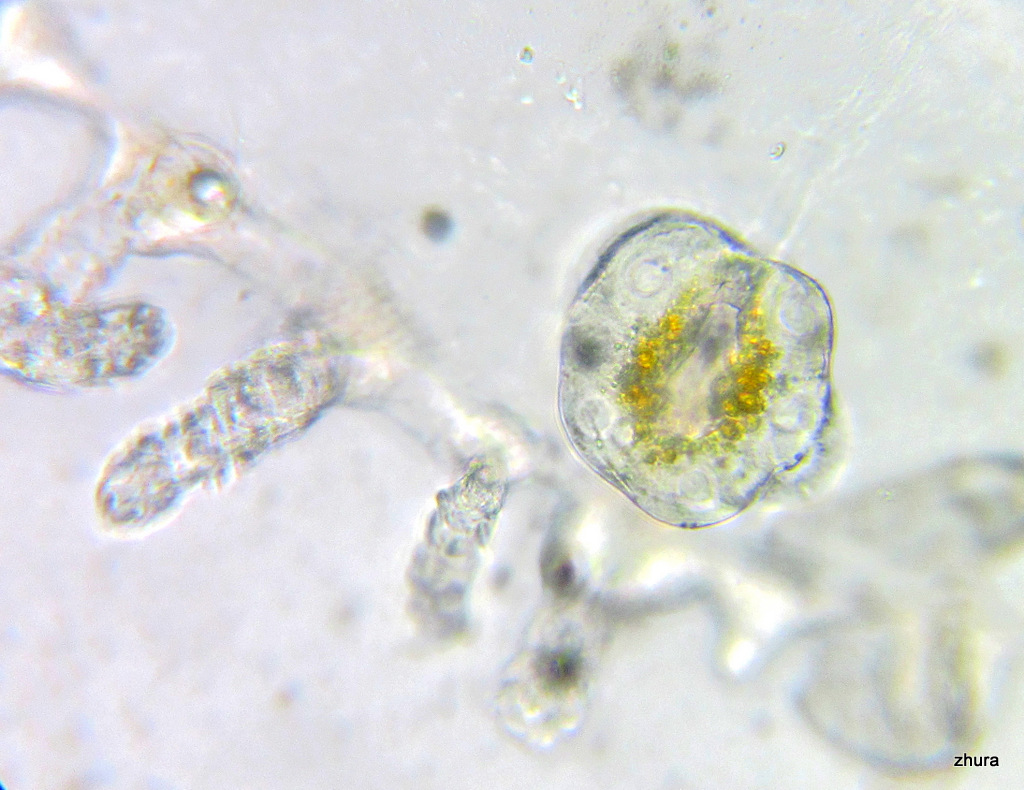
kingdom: Animalia
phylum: Cnidaria
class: Hydrozoa
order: Leptothecata
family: Campanulariidae
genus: Obelia
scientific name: Obelia longissima
